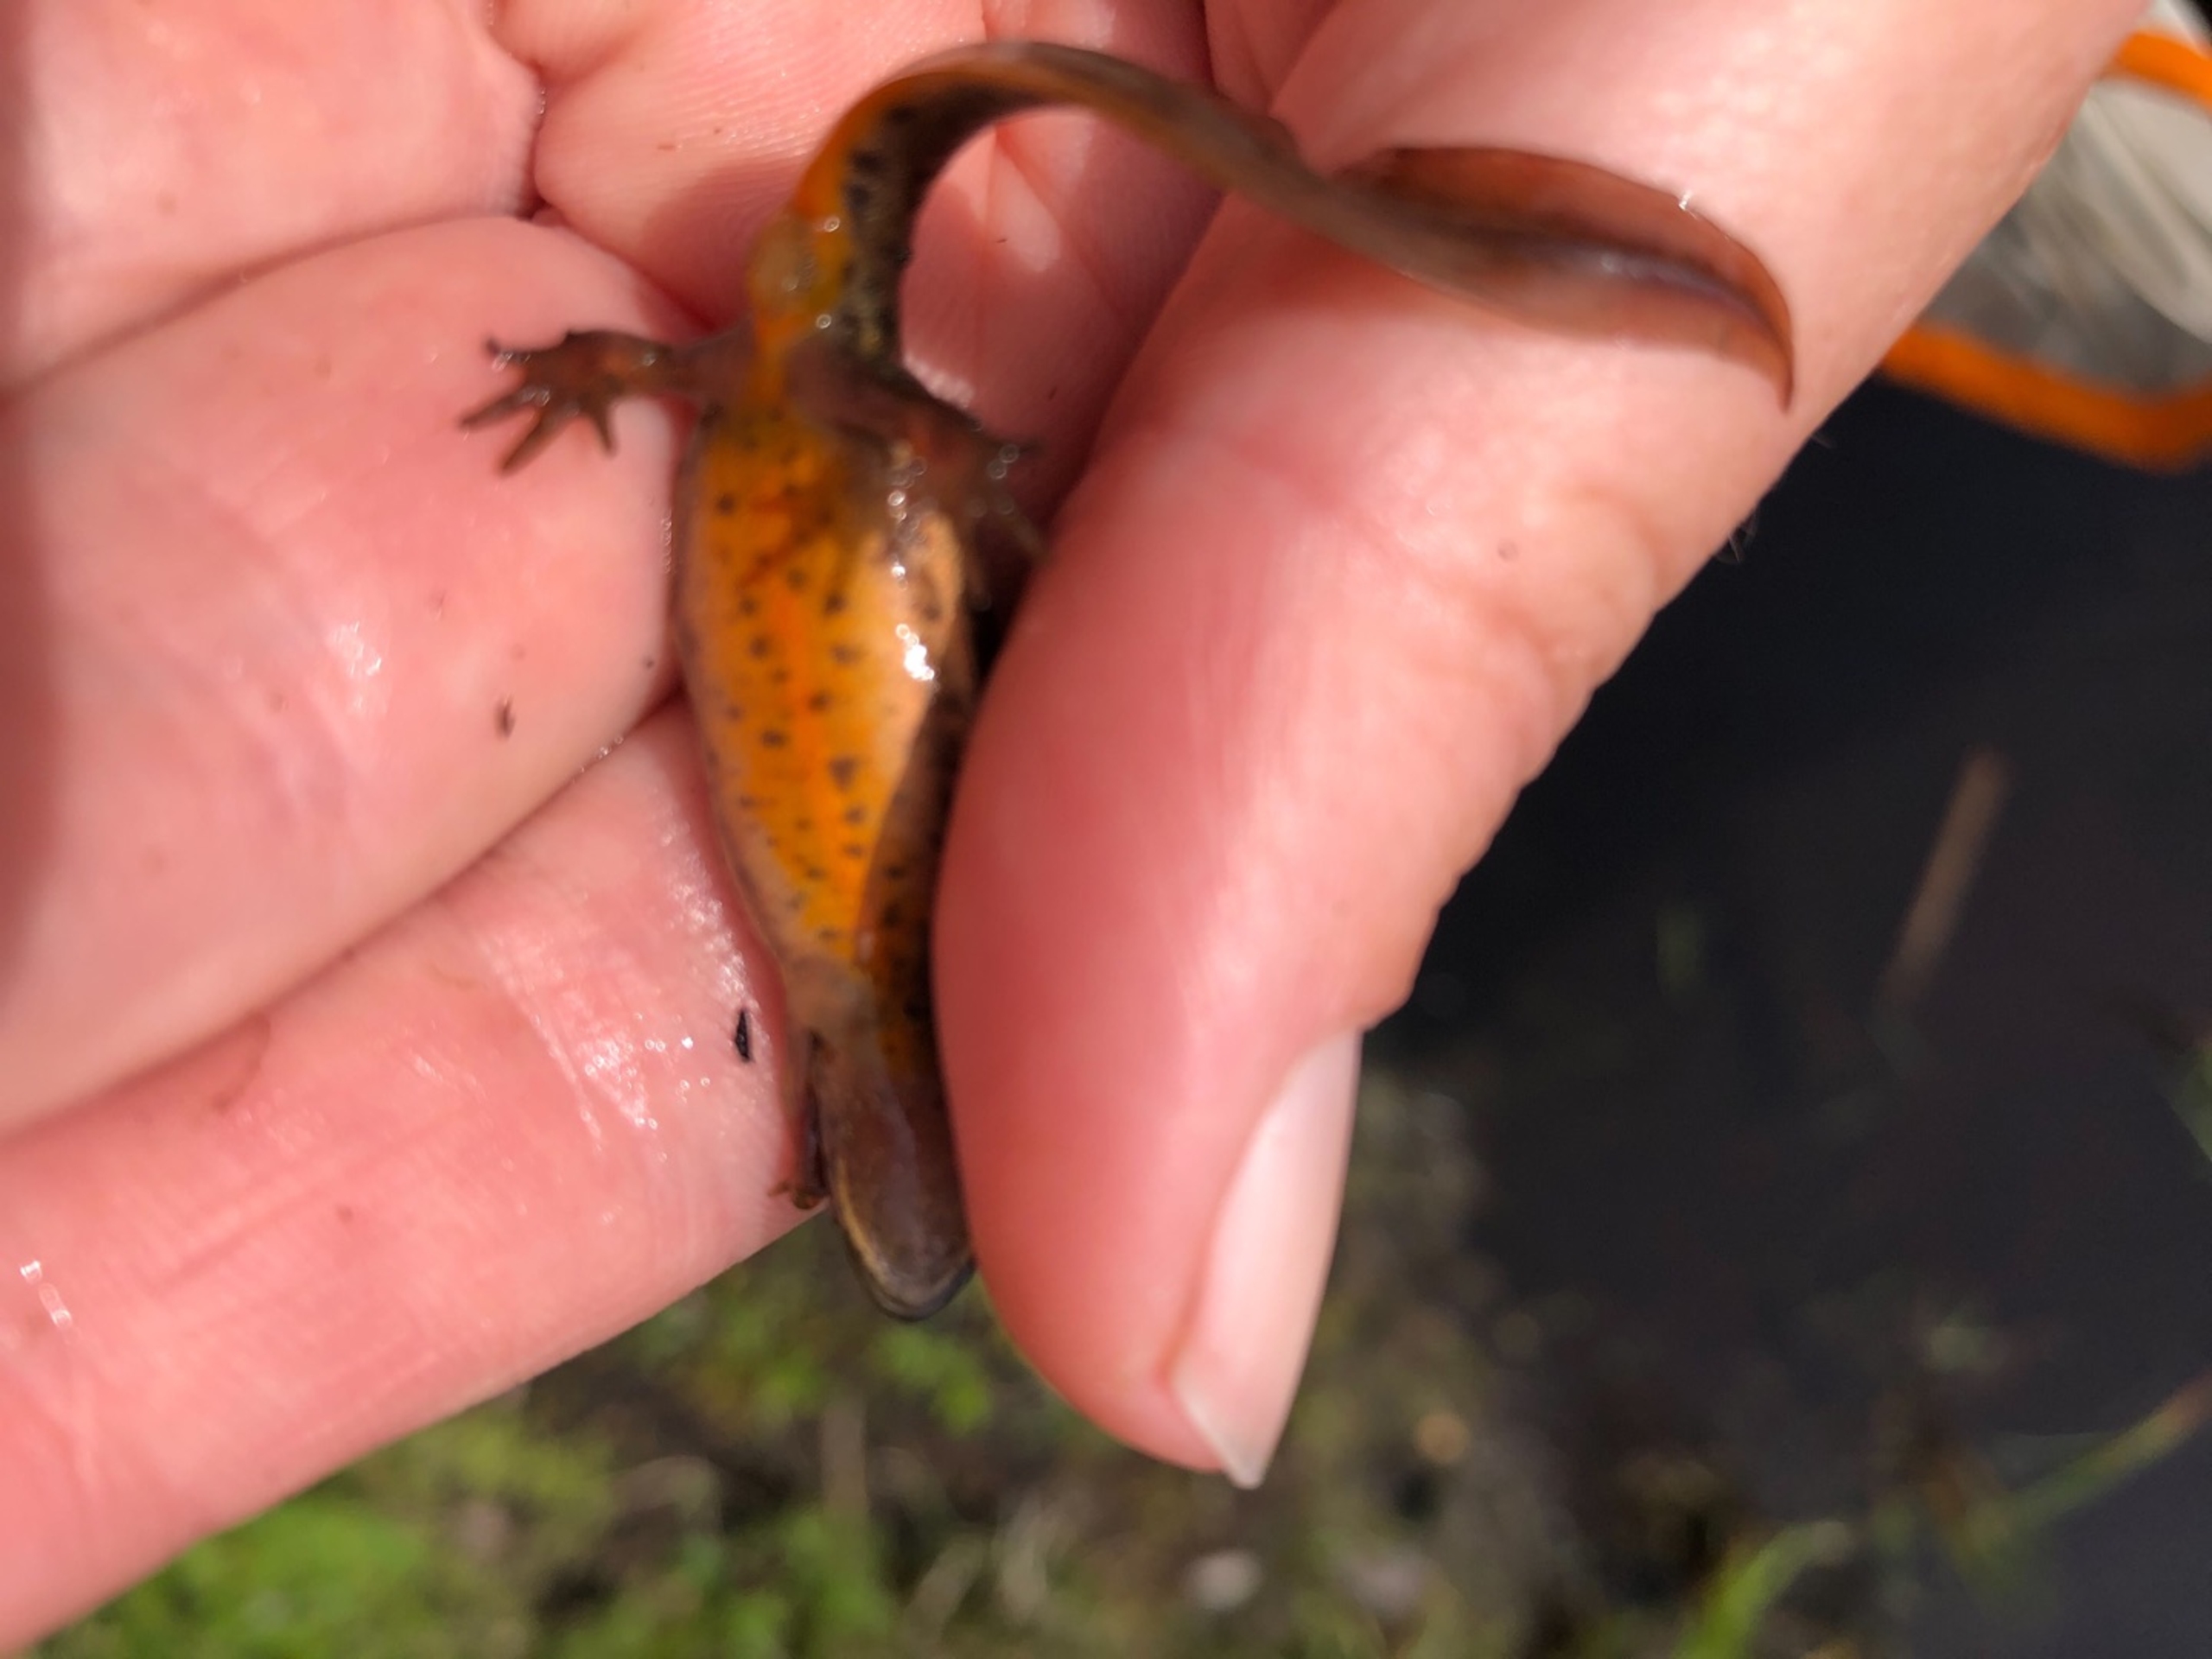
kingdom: Animalia
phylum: Chordata
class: Amphibia
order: Caudata
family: Salamandridae
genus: Lissotriton
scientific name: Lissotriton vulgaris
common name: Lille vandsalamander
